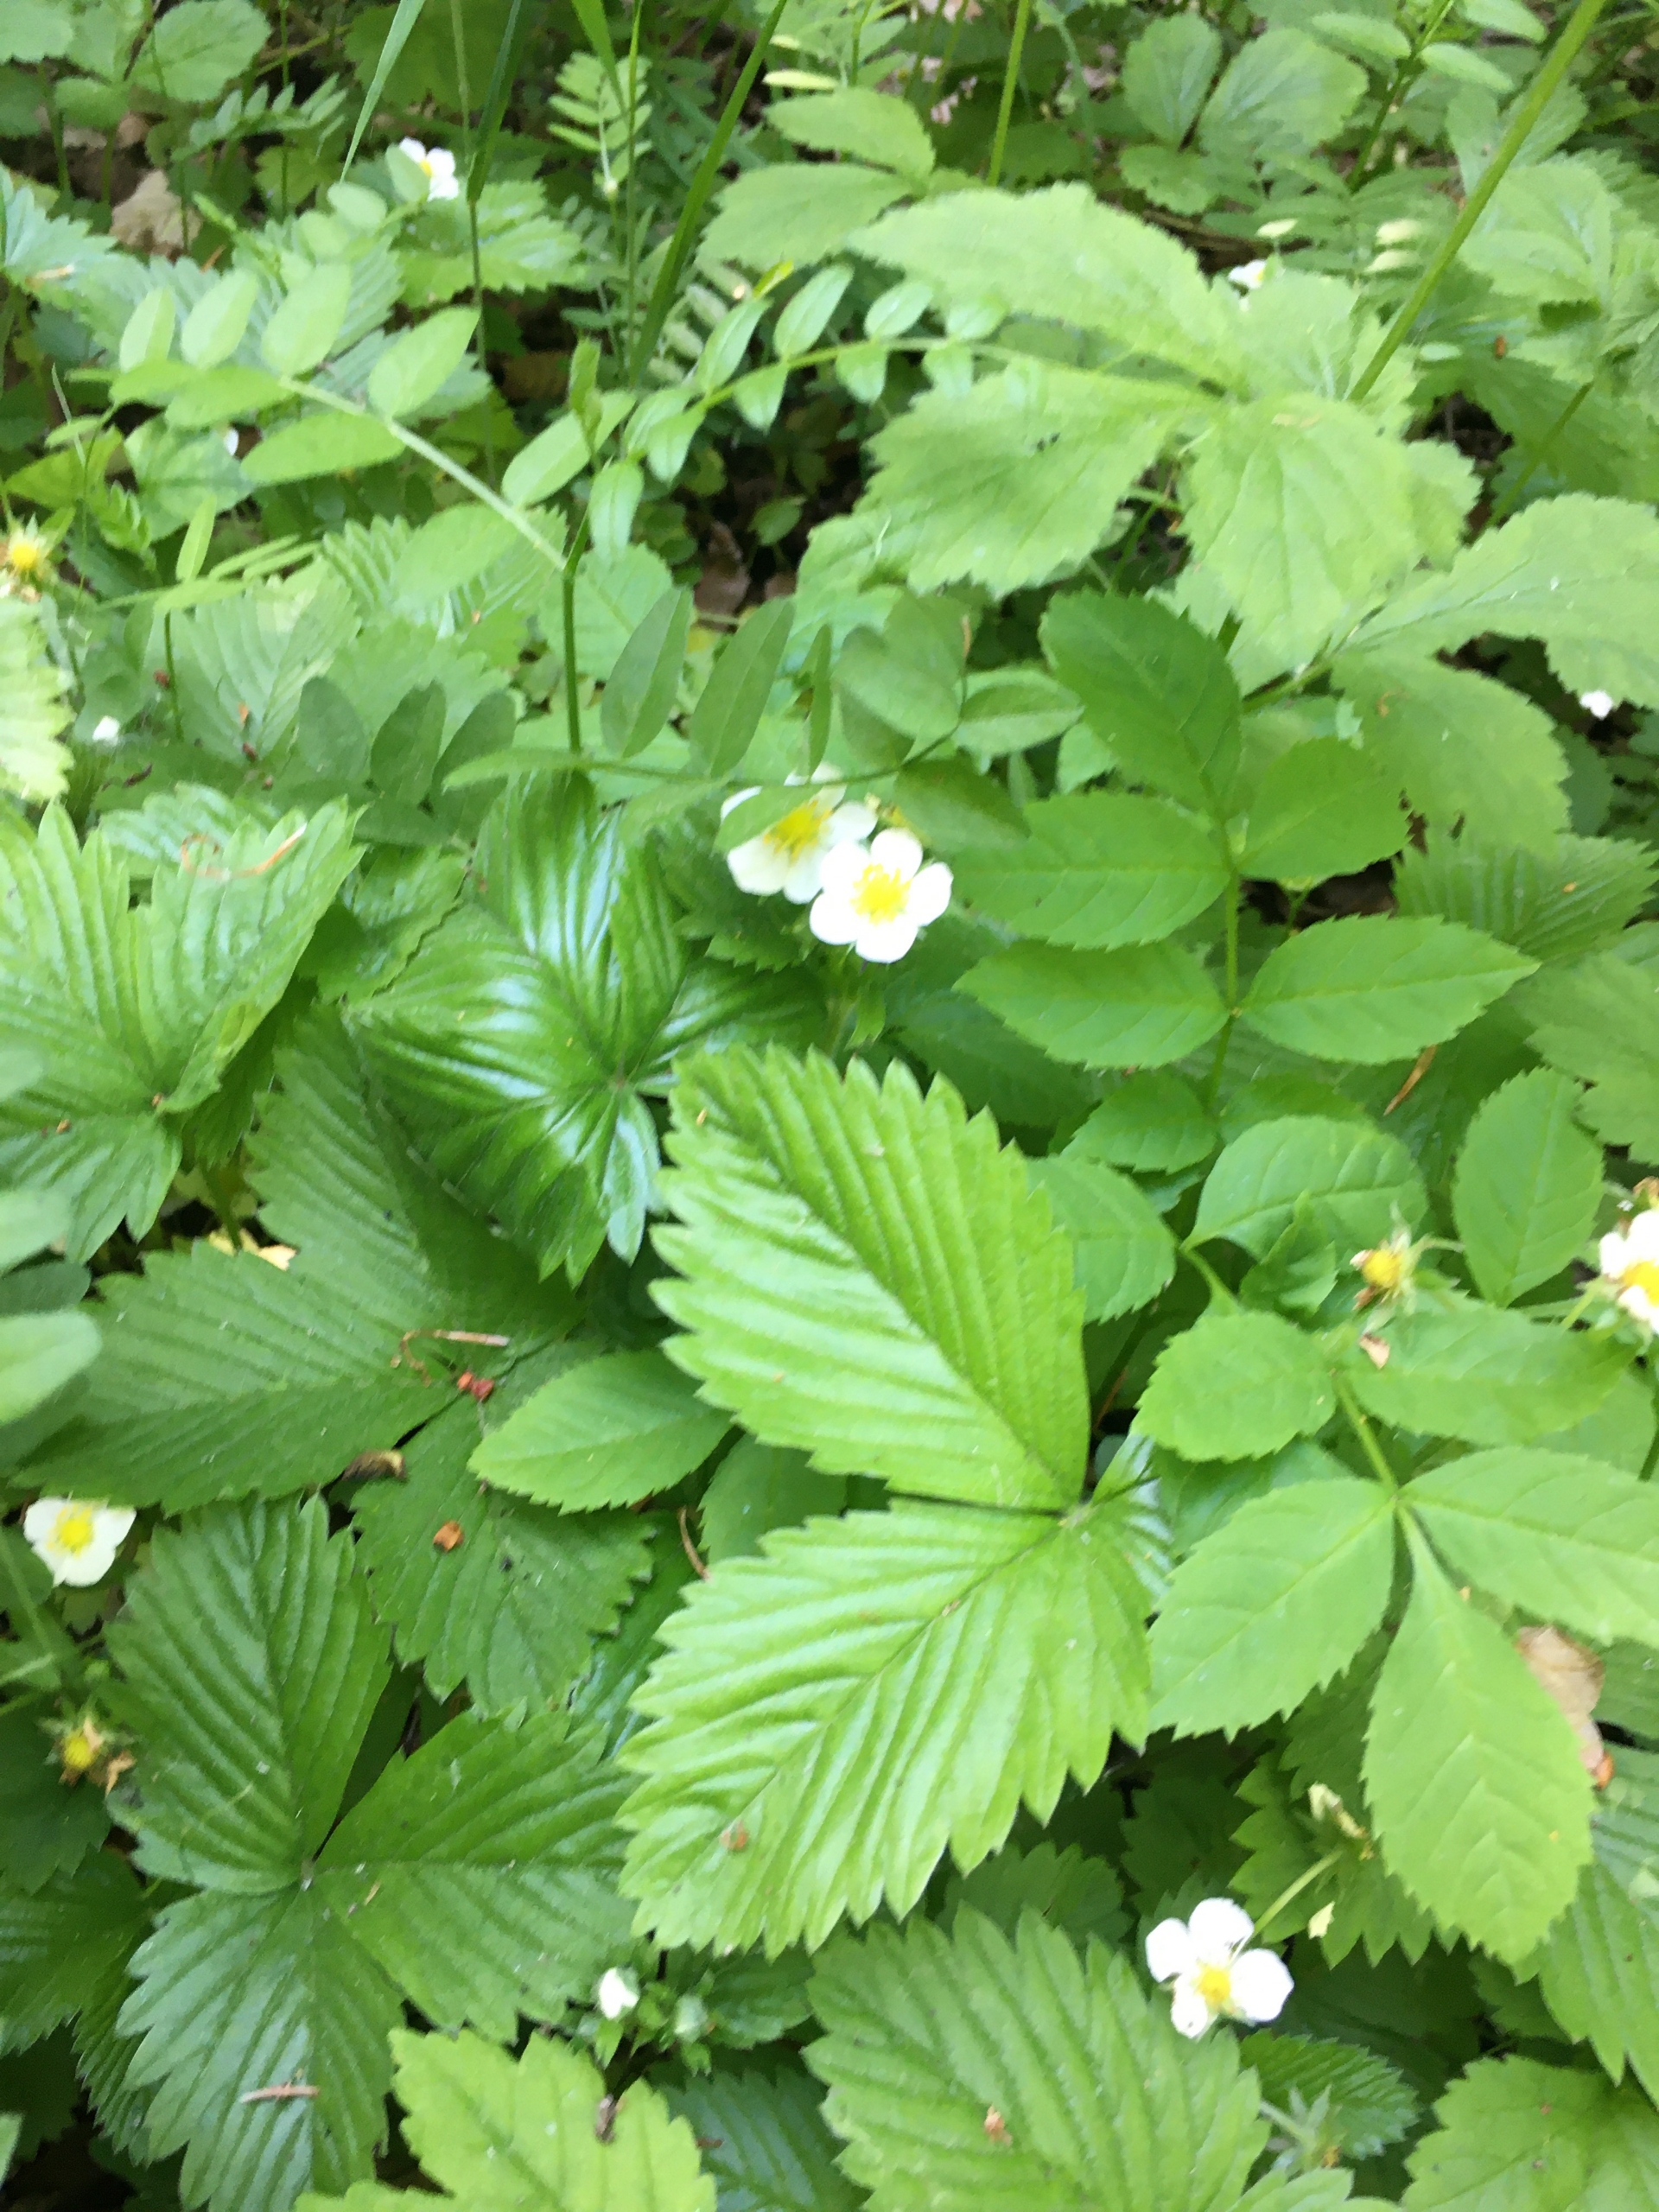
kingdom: Plantae
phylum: Tracheophyta
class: Magnoliopsida
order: Rosales
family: Rosaceae
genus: Fragaria
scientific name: Fragaria vesca
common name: Skov-jordbær
